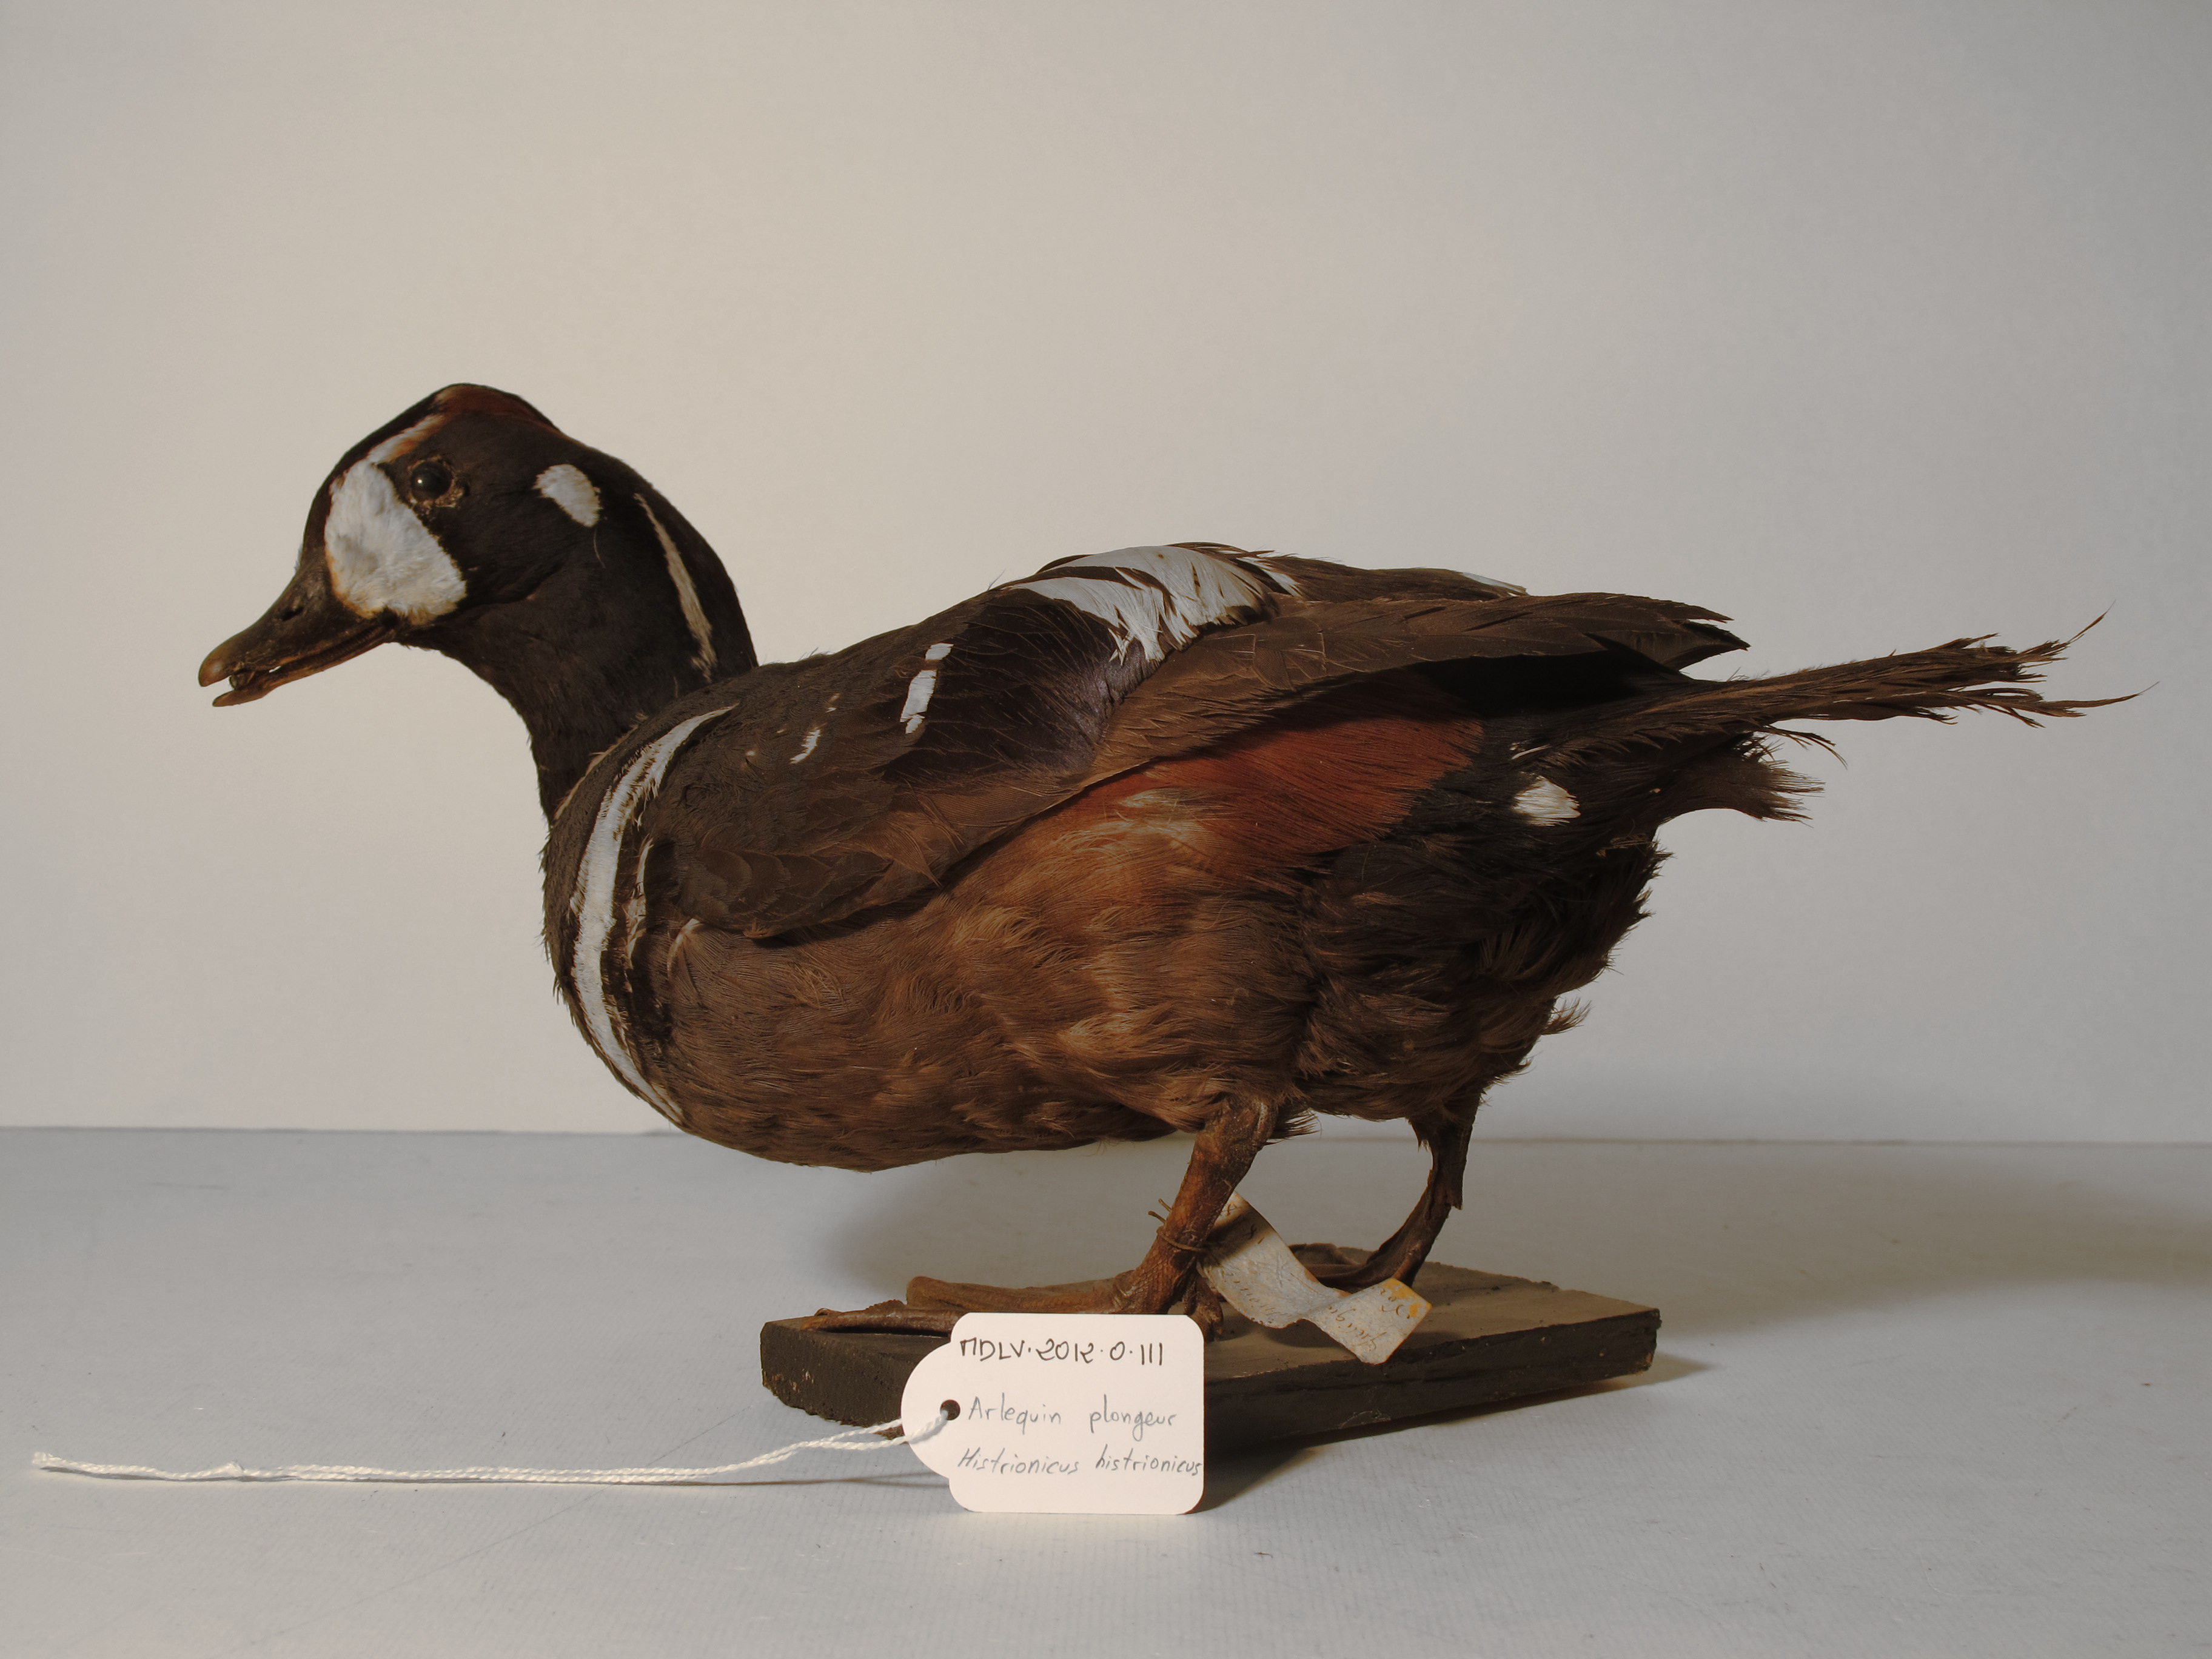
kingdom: Animalia
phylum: Chordata
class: Aves
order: Anseriformes
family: Anatidae
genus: Histrionicus
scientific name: Histrionicus histrionicus
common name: Harlequin Duck
